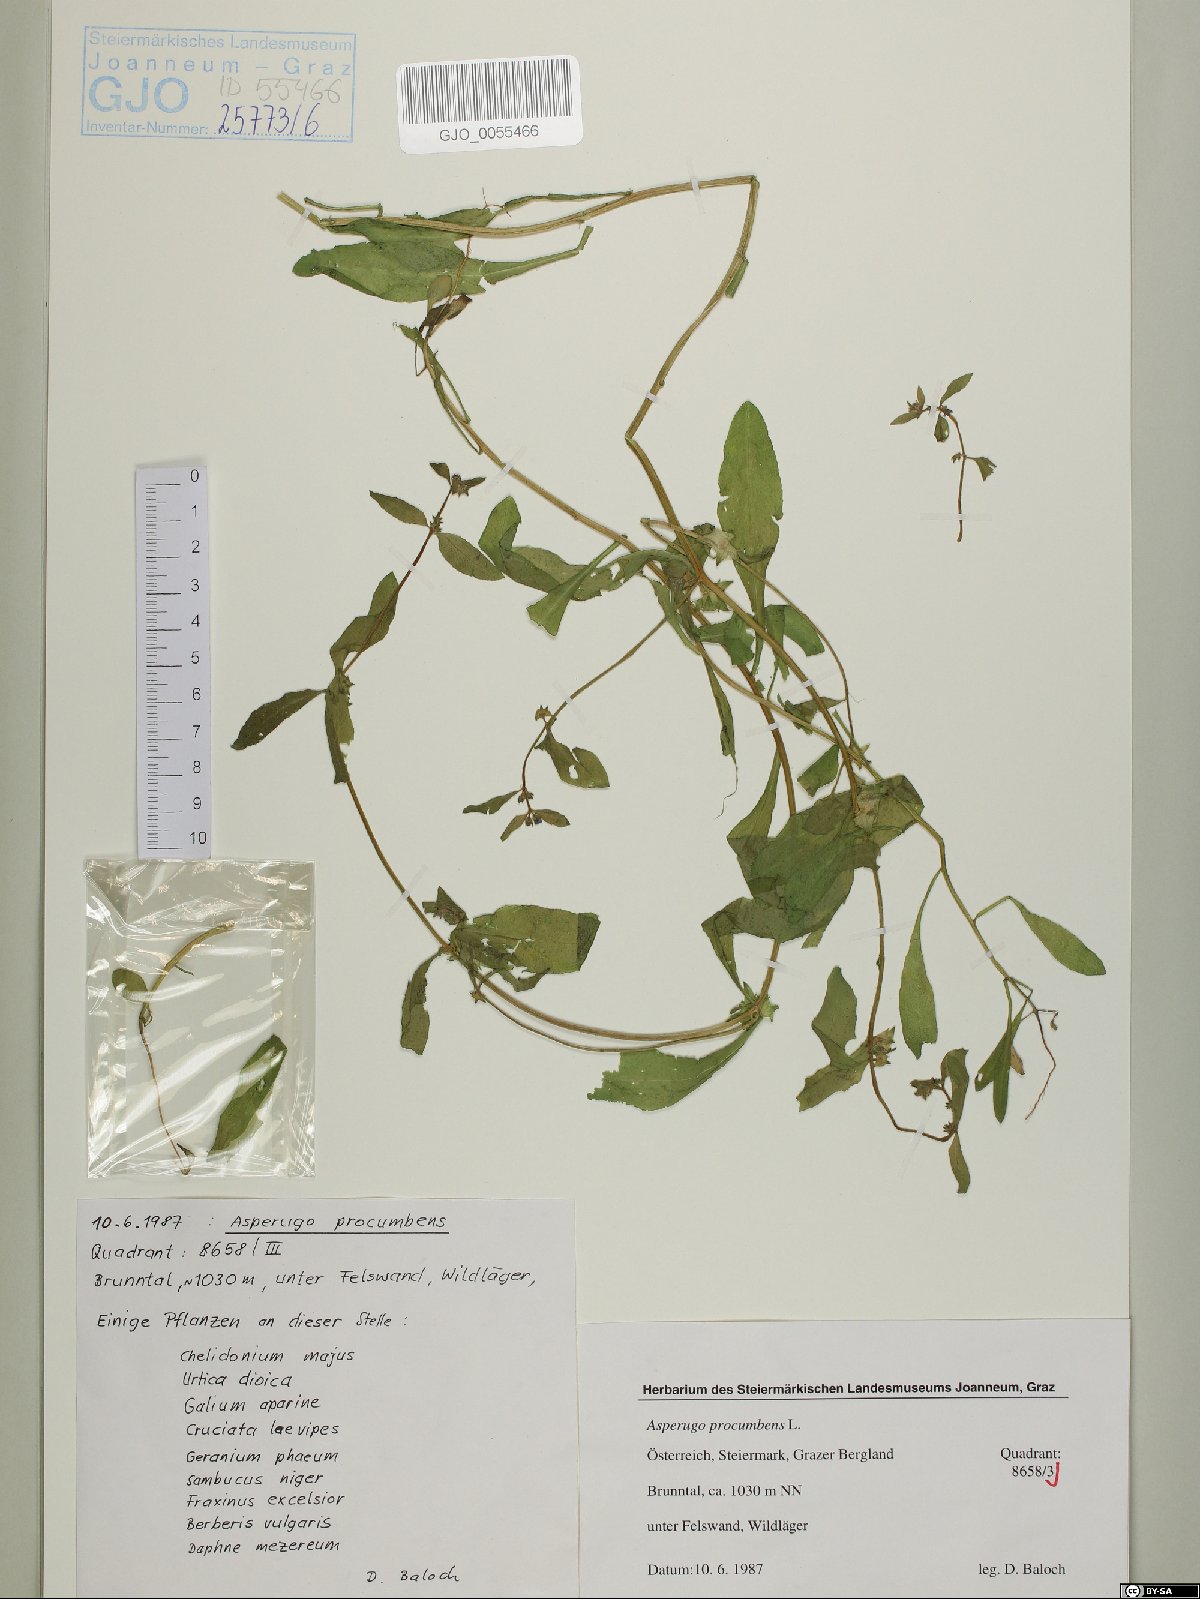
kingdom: Plantae
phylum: Tracheophyta
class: Magnoliopsida
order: Boraginales
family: Boraginaceae
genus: Asperugo
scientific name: Asperugo procumbens
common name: Madwort
